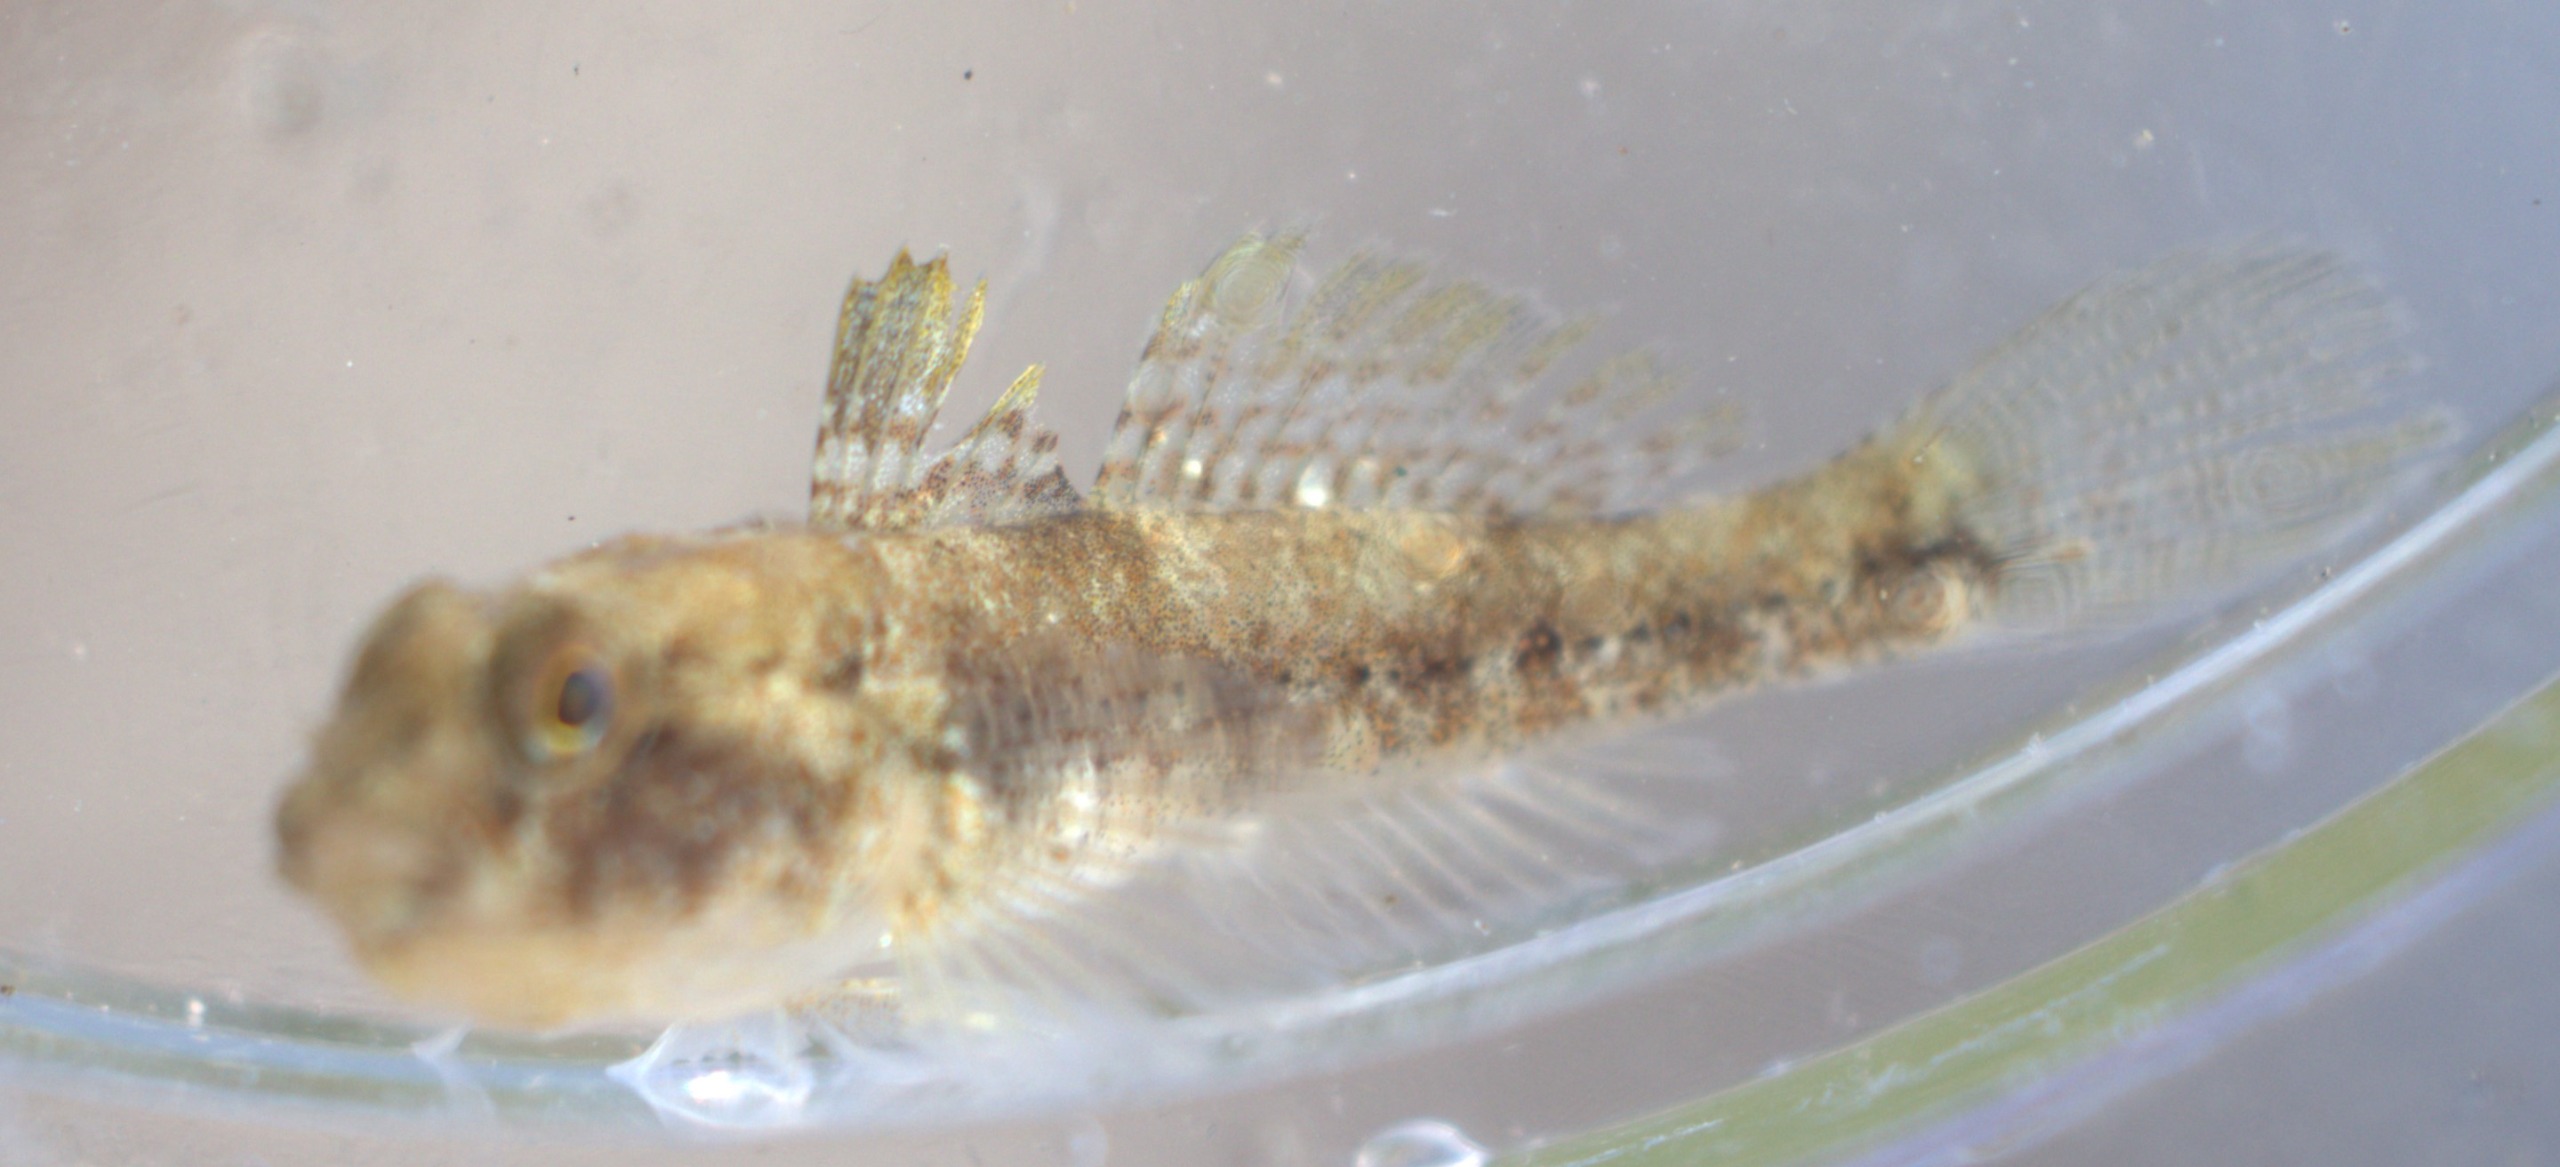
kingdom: Animalia
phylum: Chordata
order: Perciformes
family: Gobiidae
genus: Gobius
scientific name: Gobius niger
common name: Sortkutling
